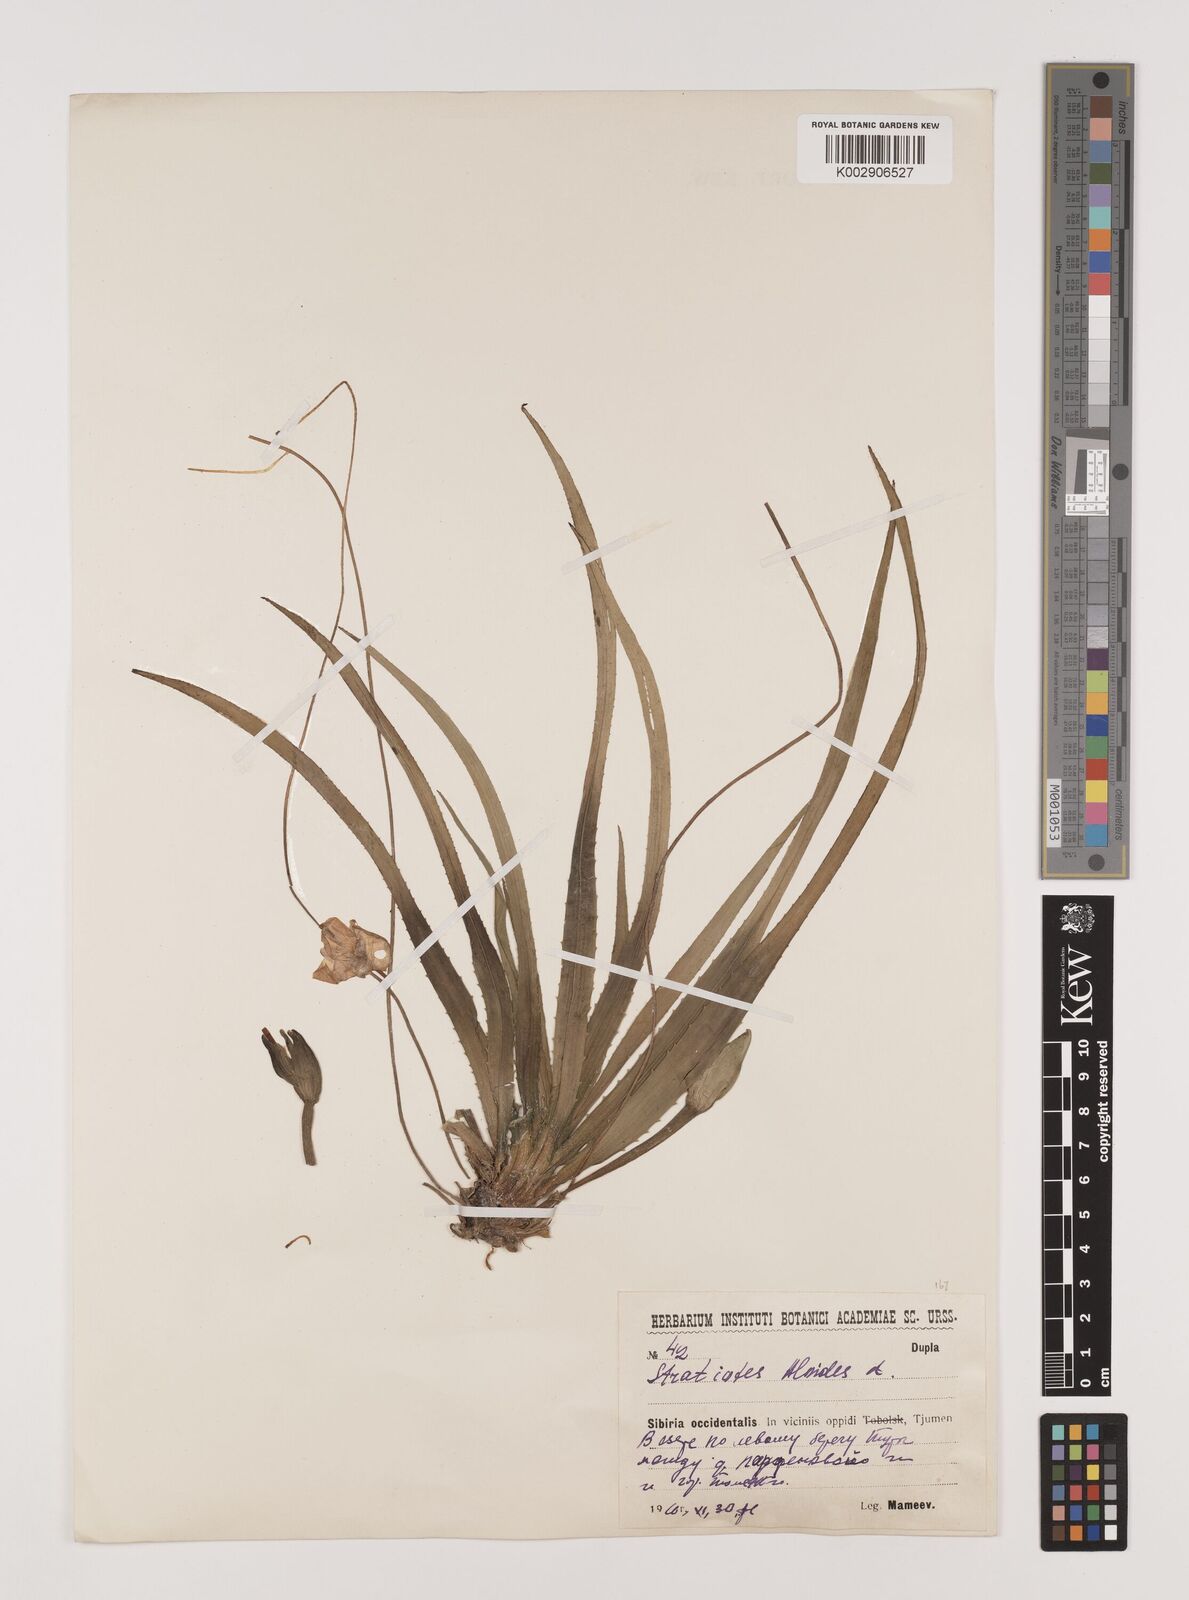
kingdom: Plantae
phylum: Tracheophyta
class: Liliopsida
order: Alismatales
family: Hydrocharitaceae
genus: Stratiotes
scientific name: Stratiotes aloides
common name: Water-soldier
